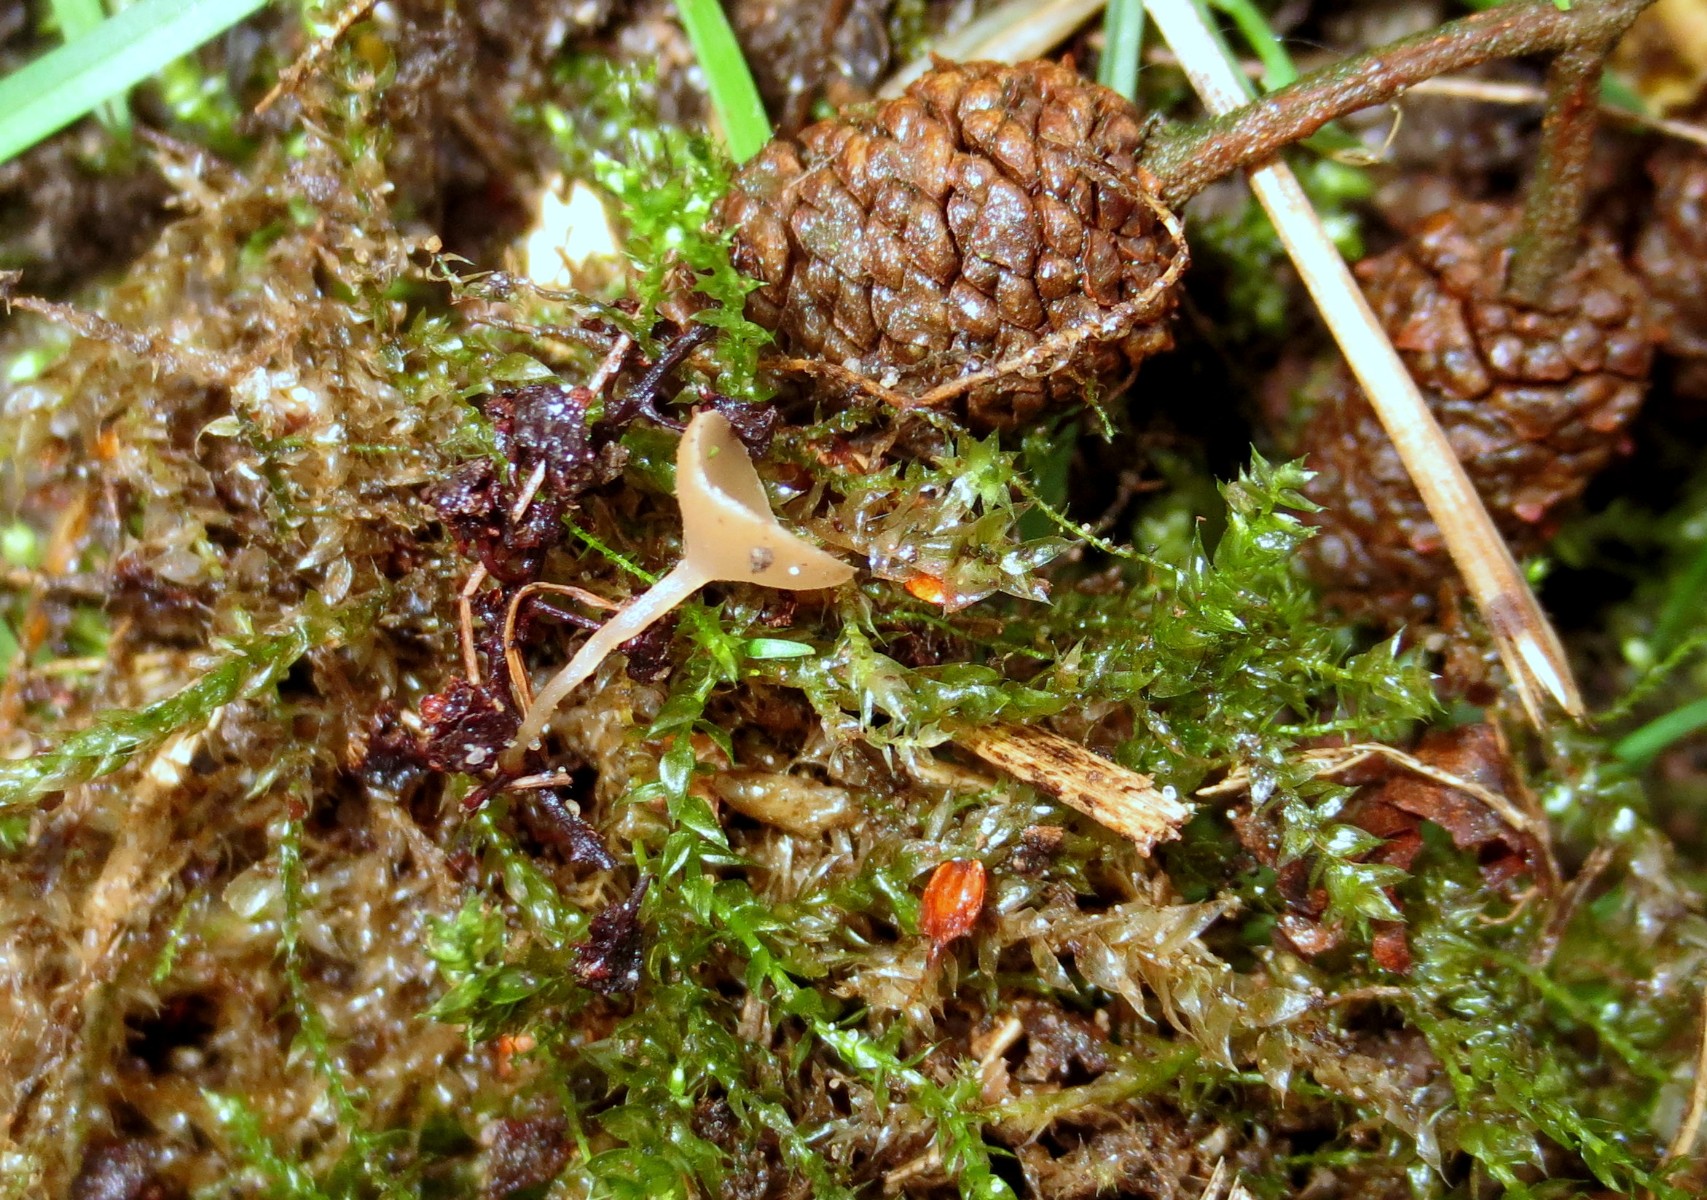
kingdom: Fungi
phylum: Ascomycota
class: Leotiomycetes
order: Helotiales
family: Sclerotiniaceae
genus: Ciboria
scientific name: Ciboria amentacea
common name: ellerakle-knoldskive
